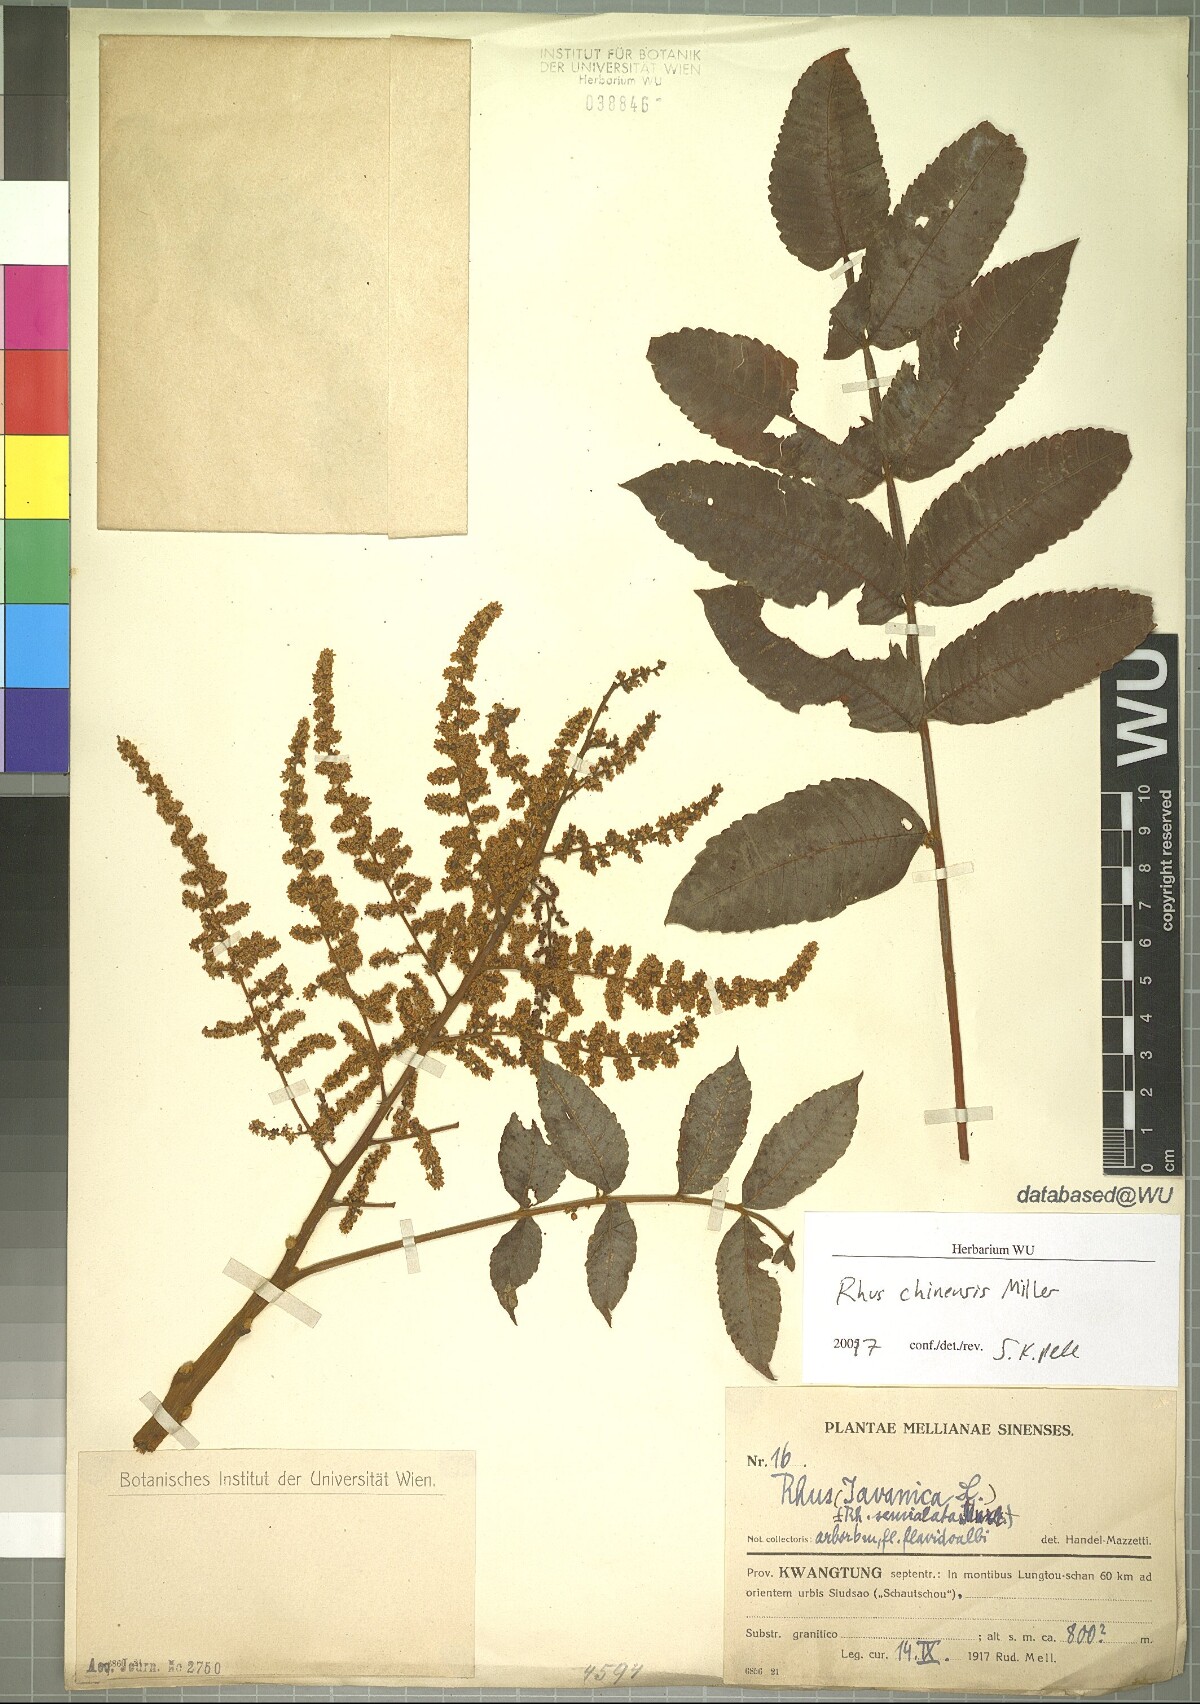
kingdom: Plantae
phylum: Tracheophyta
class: Magnoliopsida
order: Sapindales
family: Anacardiaceae
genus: Rhus
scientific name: Rhus chinensis
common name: Chinese gall
